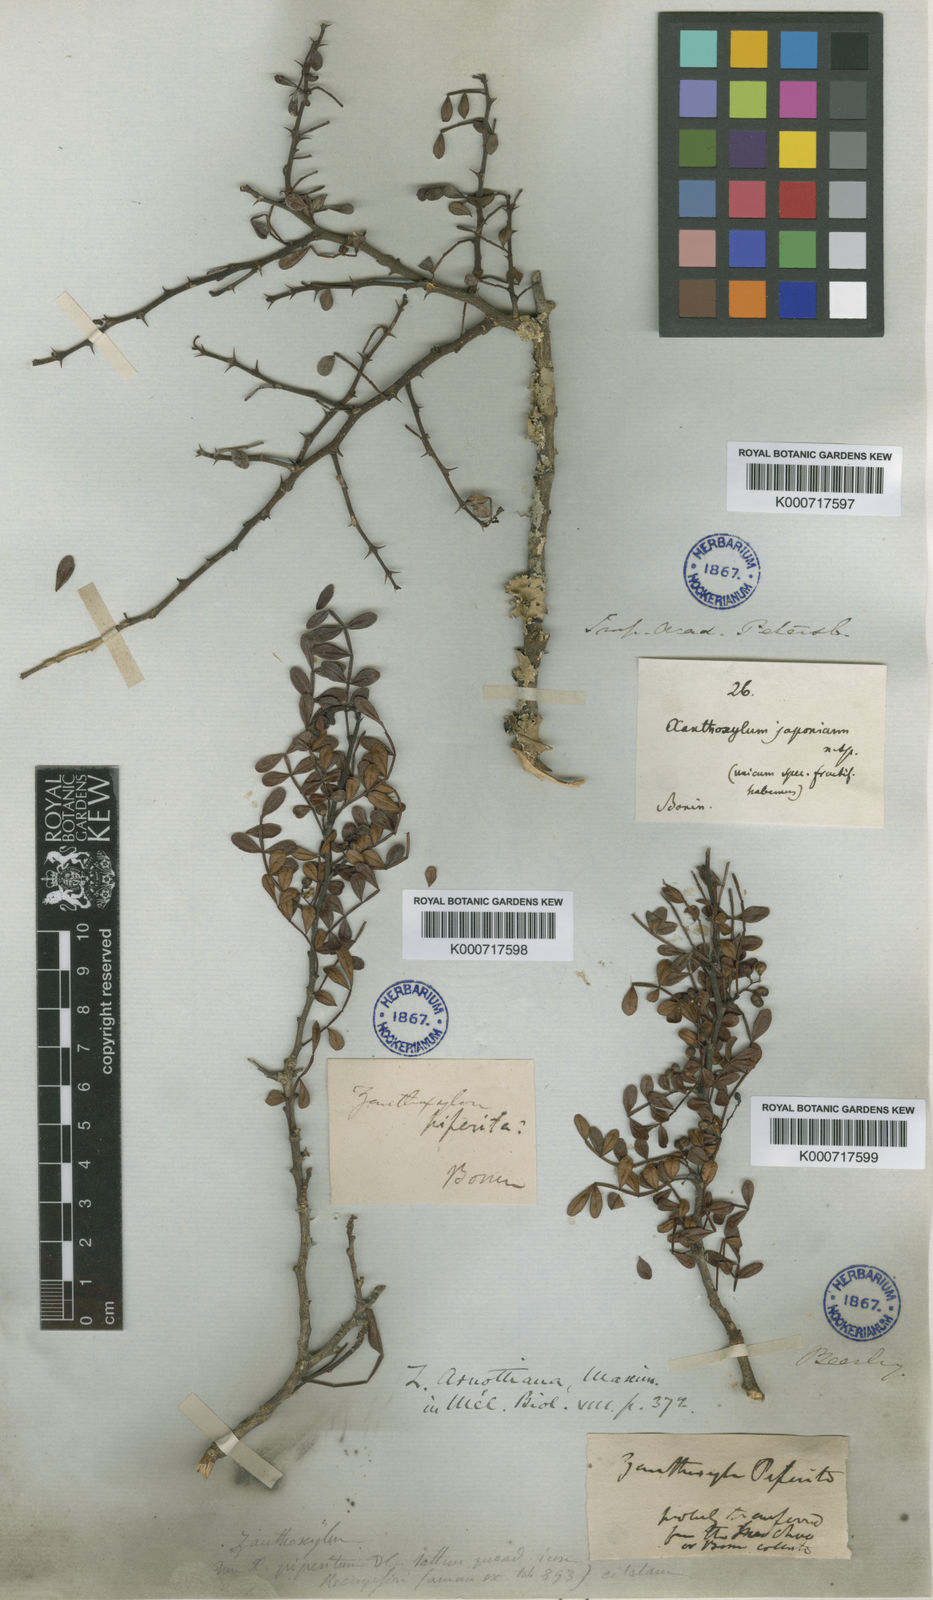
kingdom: Plantae
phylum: Tracheophyta
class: Magnoliopsida
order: Sapindales
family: Rutaceae
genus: Zanthoxylum
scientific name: Zanthoxylum beecheyanum
